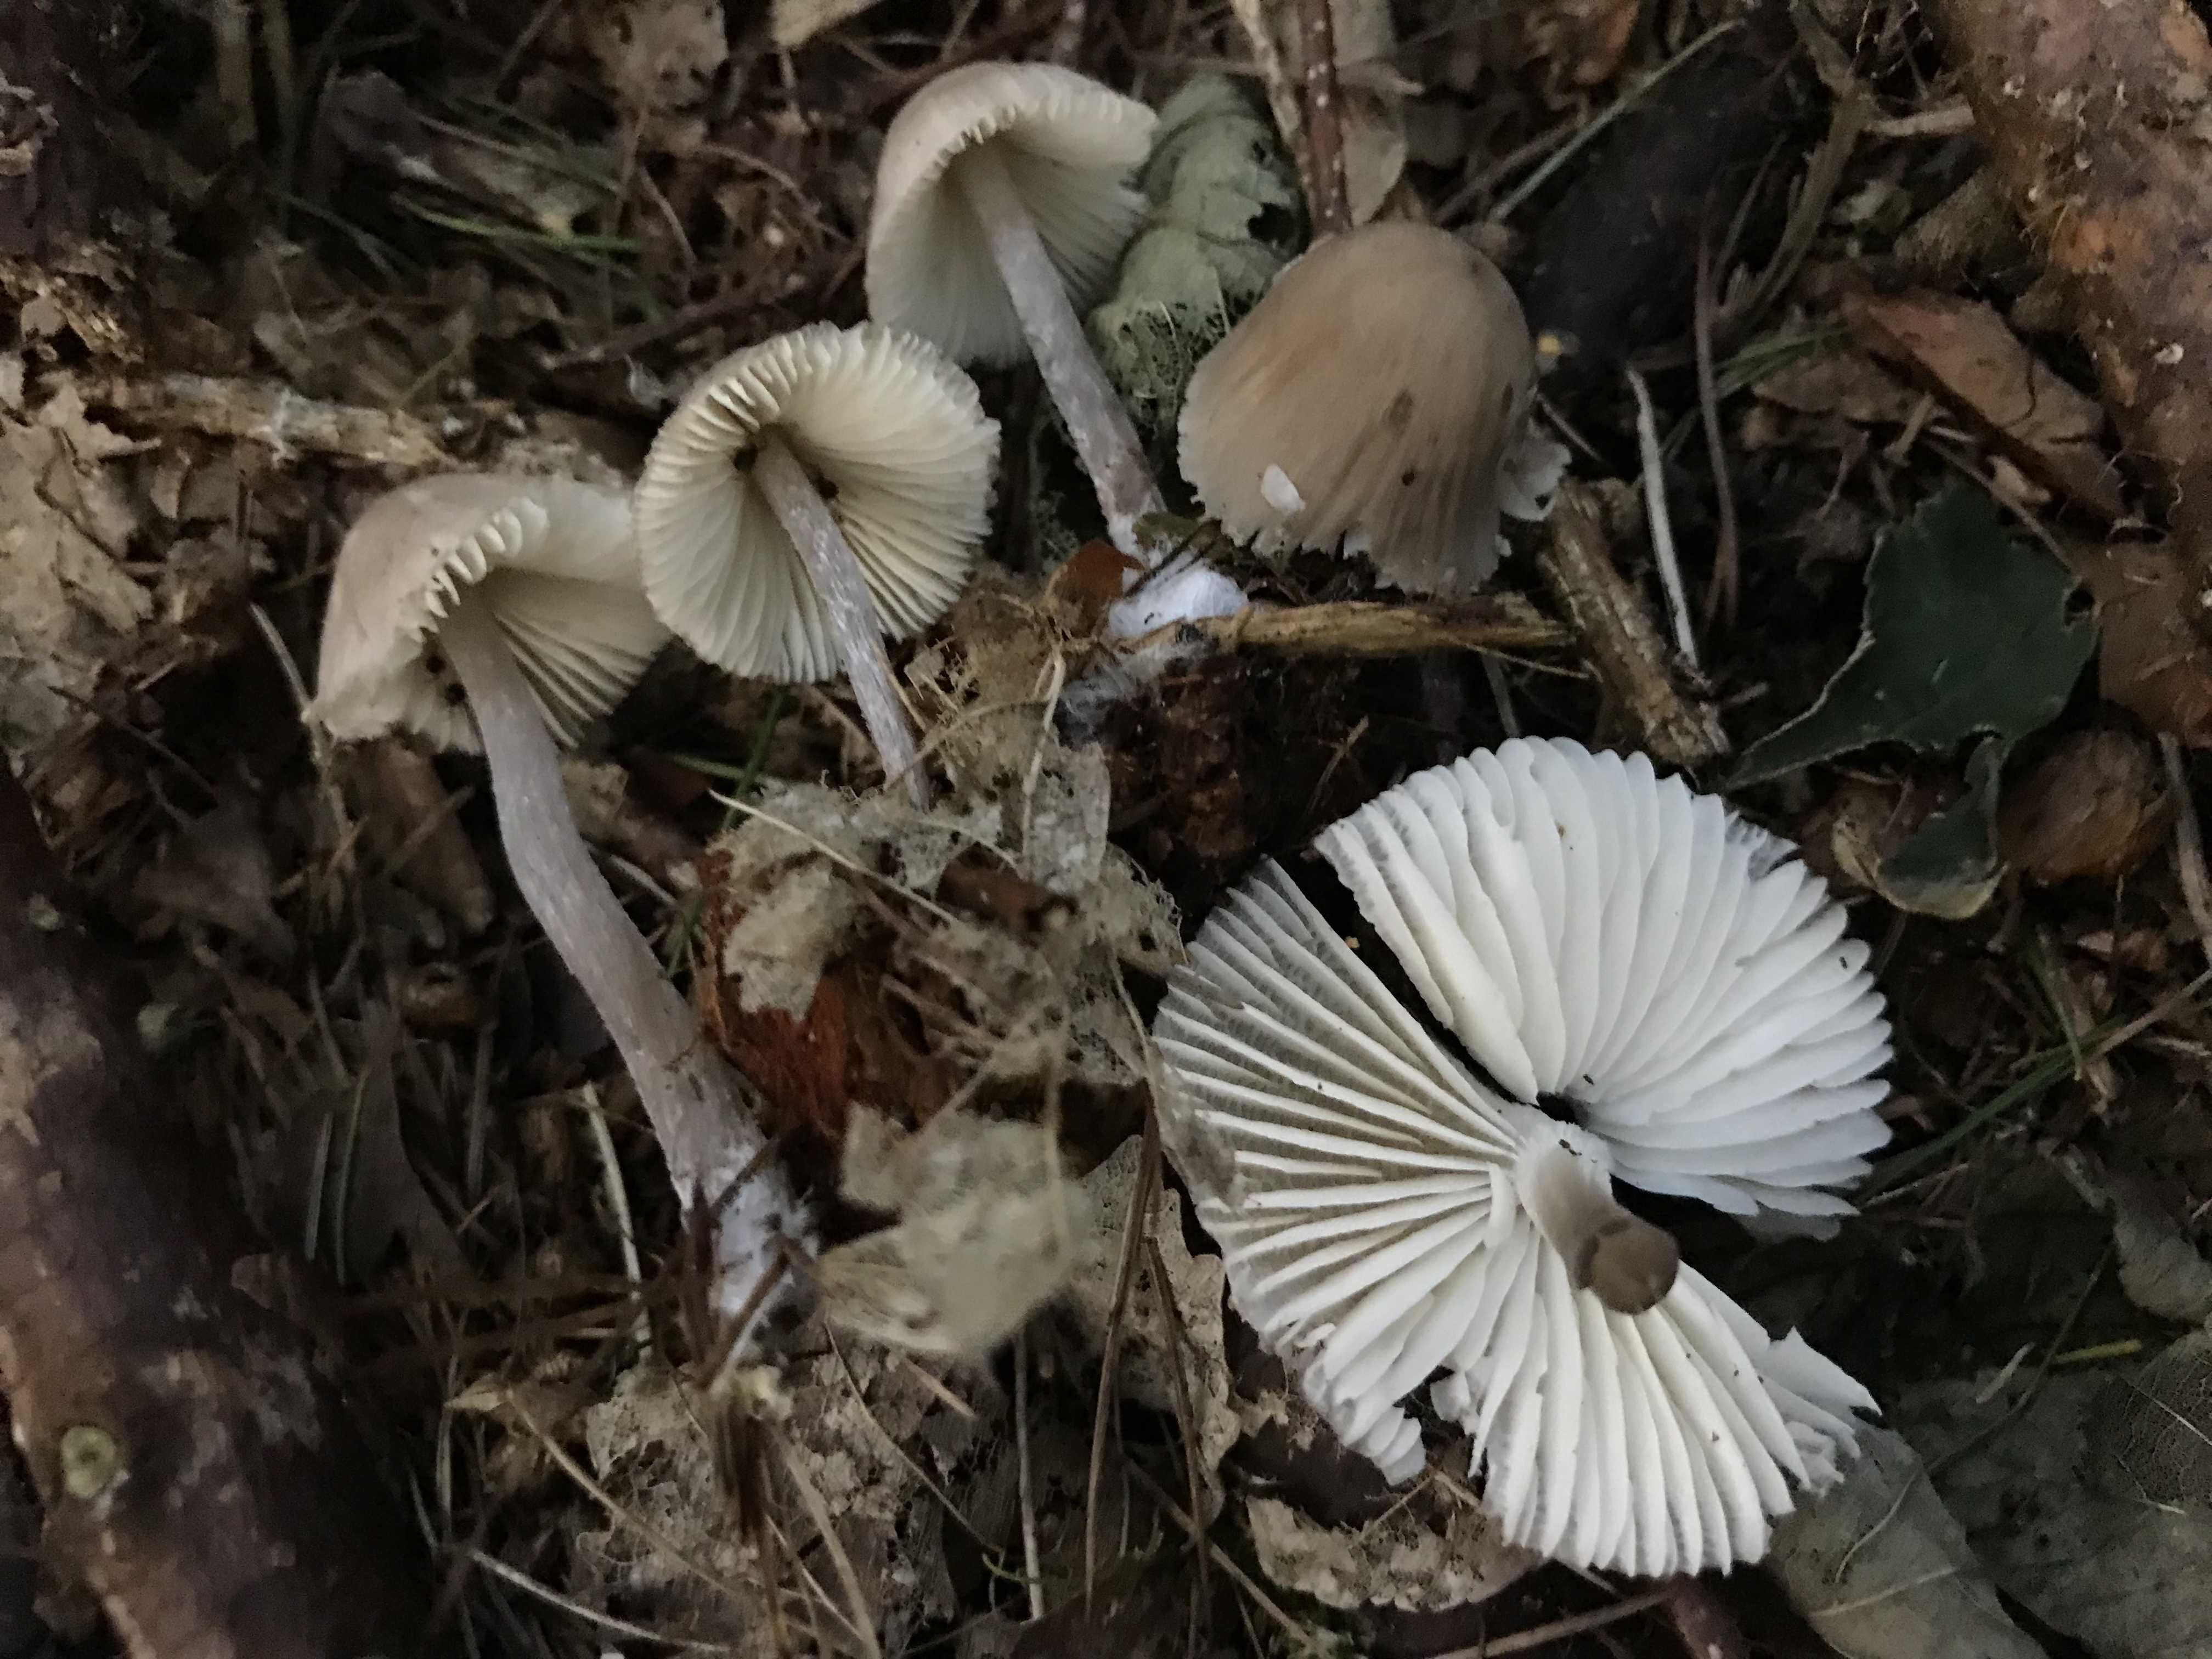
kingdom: Fungi
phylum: Basidiomycota
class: Agaricomycetes
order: Agaricales
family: Mycenaceae
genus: Mycena
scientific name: Mycena zephirus
